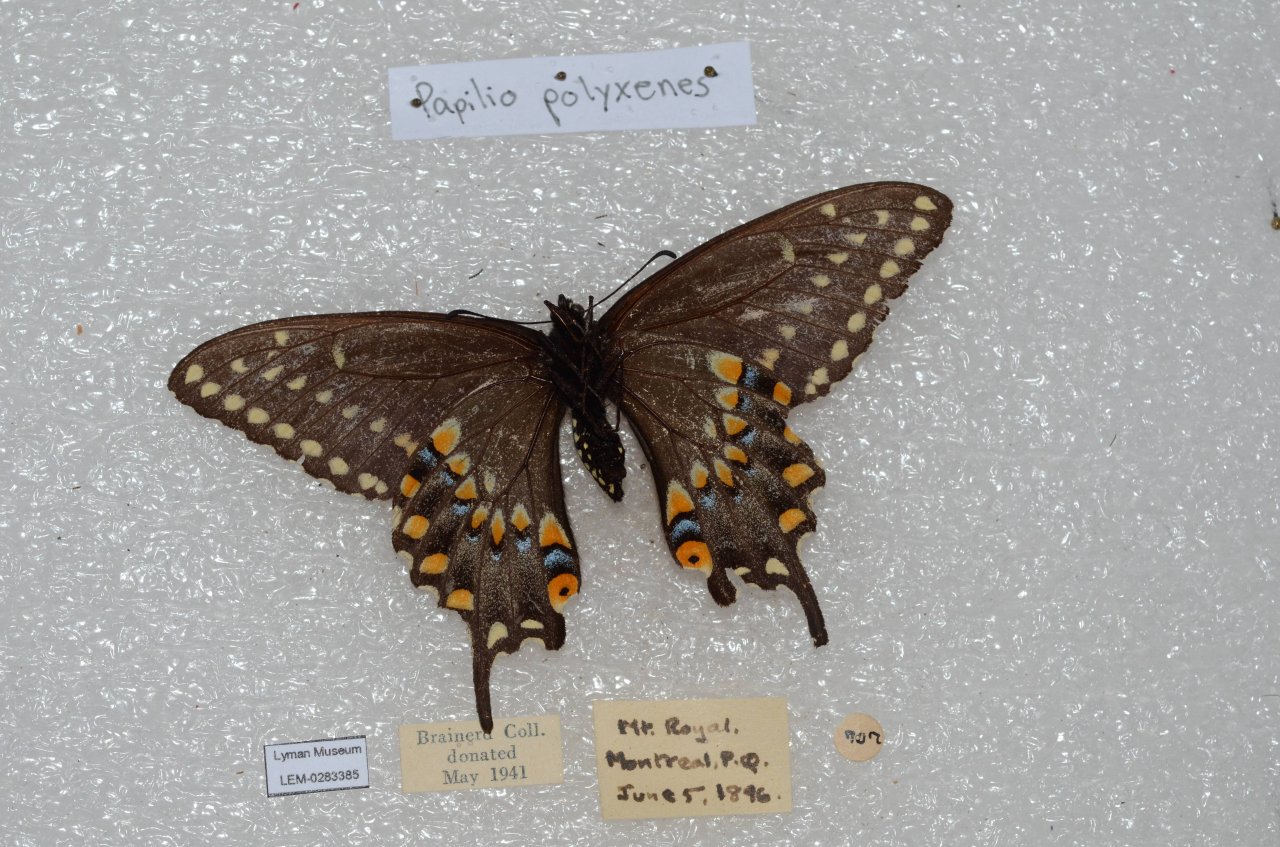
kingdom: Animalia
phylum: Arthropoda
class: Insecta
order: Lepidoptera
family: Papilionidae
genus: Papilio
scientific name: Papilio polyxenes
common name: Black Swallowtail
